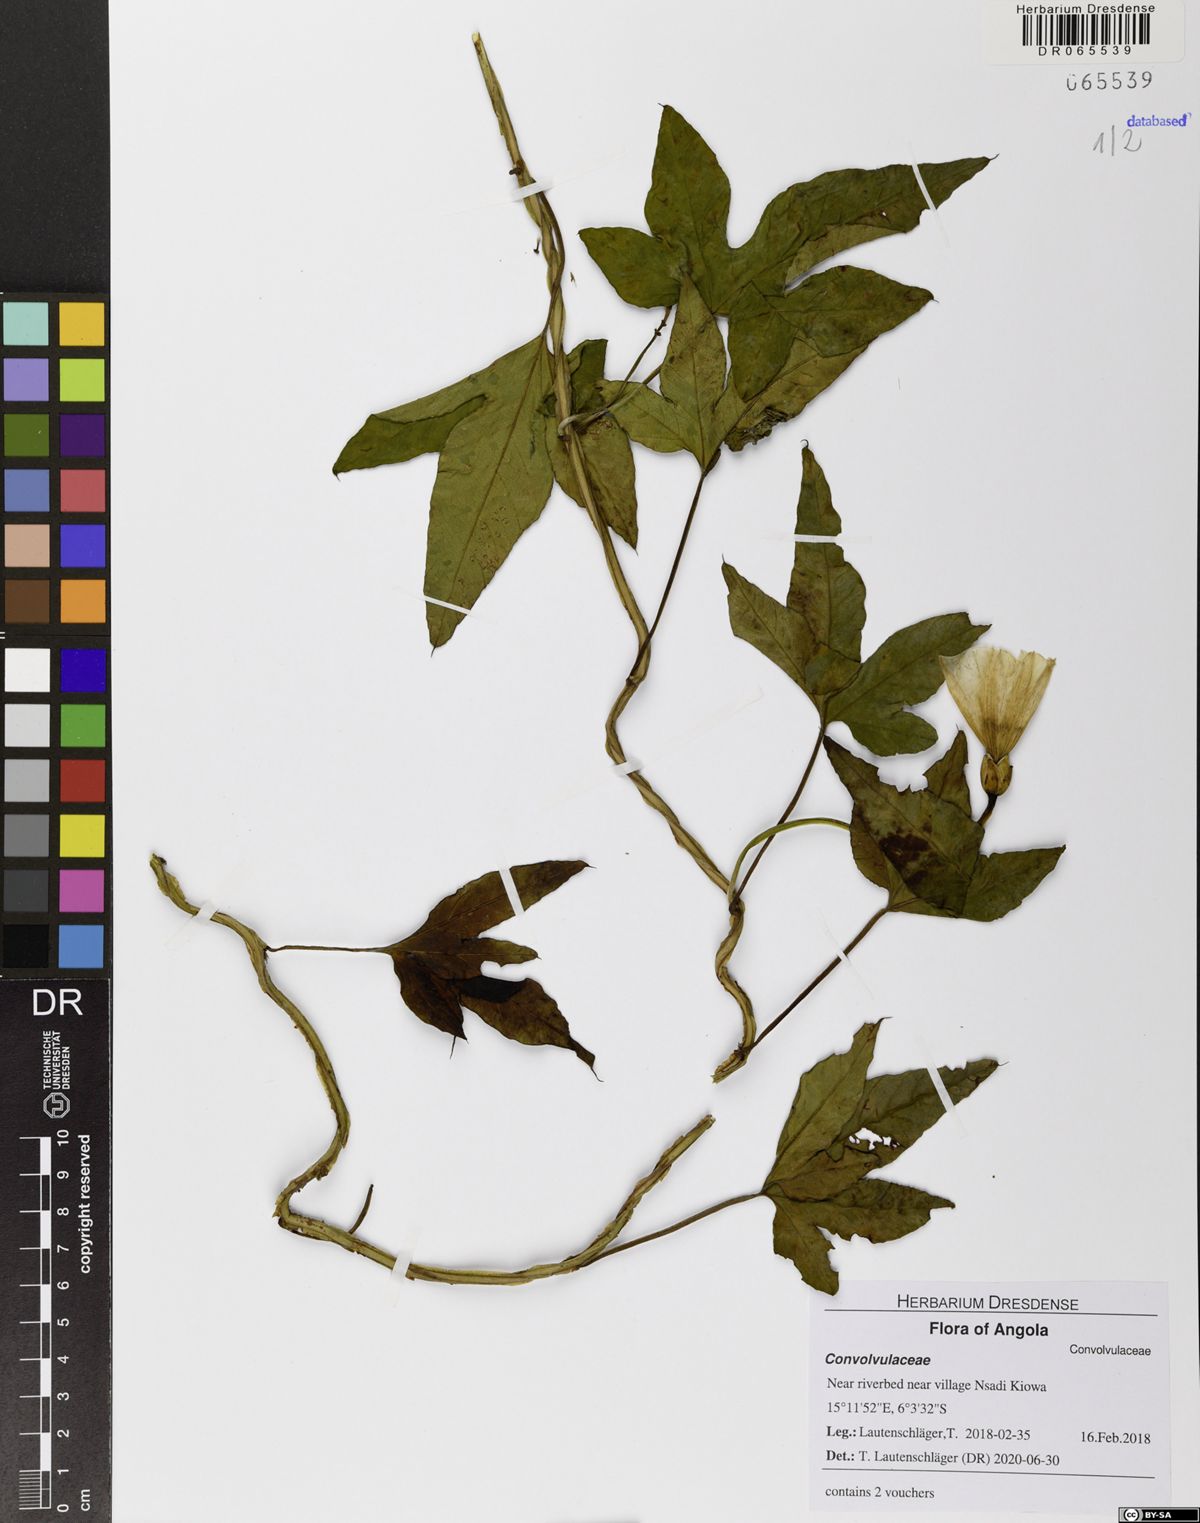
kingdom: Plantae
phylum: Tracheophyta
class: Magnoliopsida
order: Solanales
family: Convolvulaceae
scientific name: Convolvulaceae
